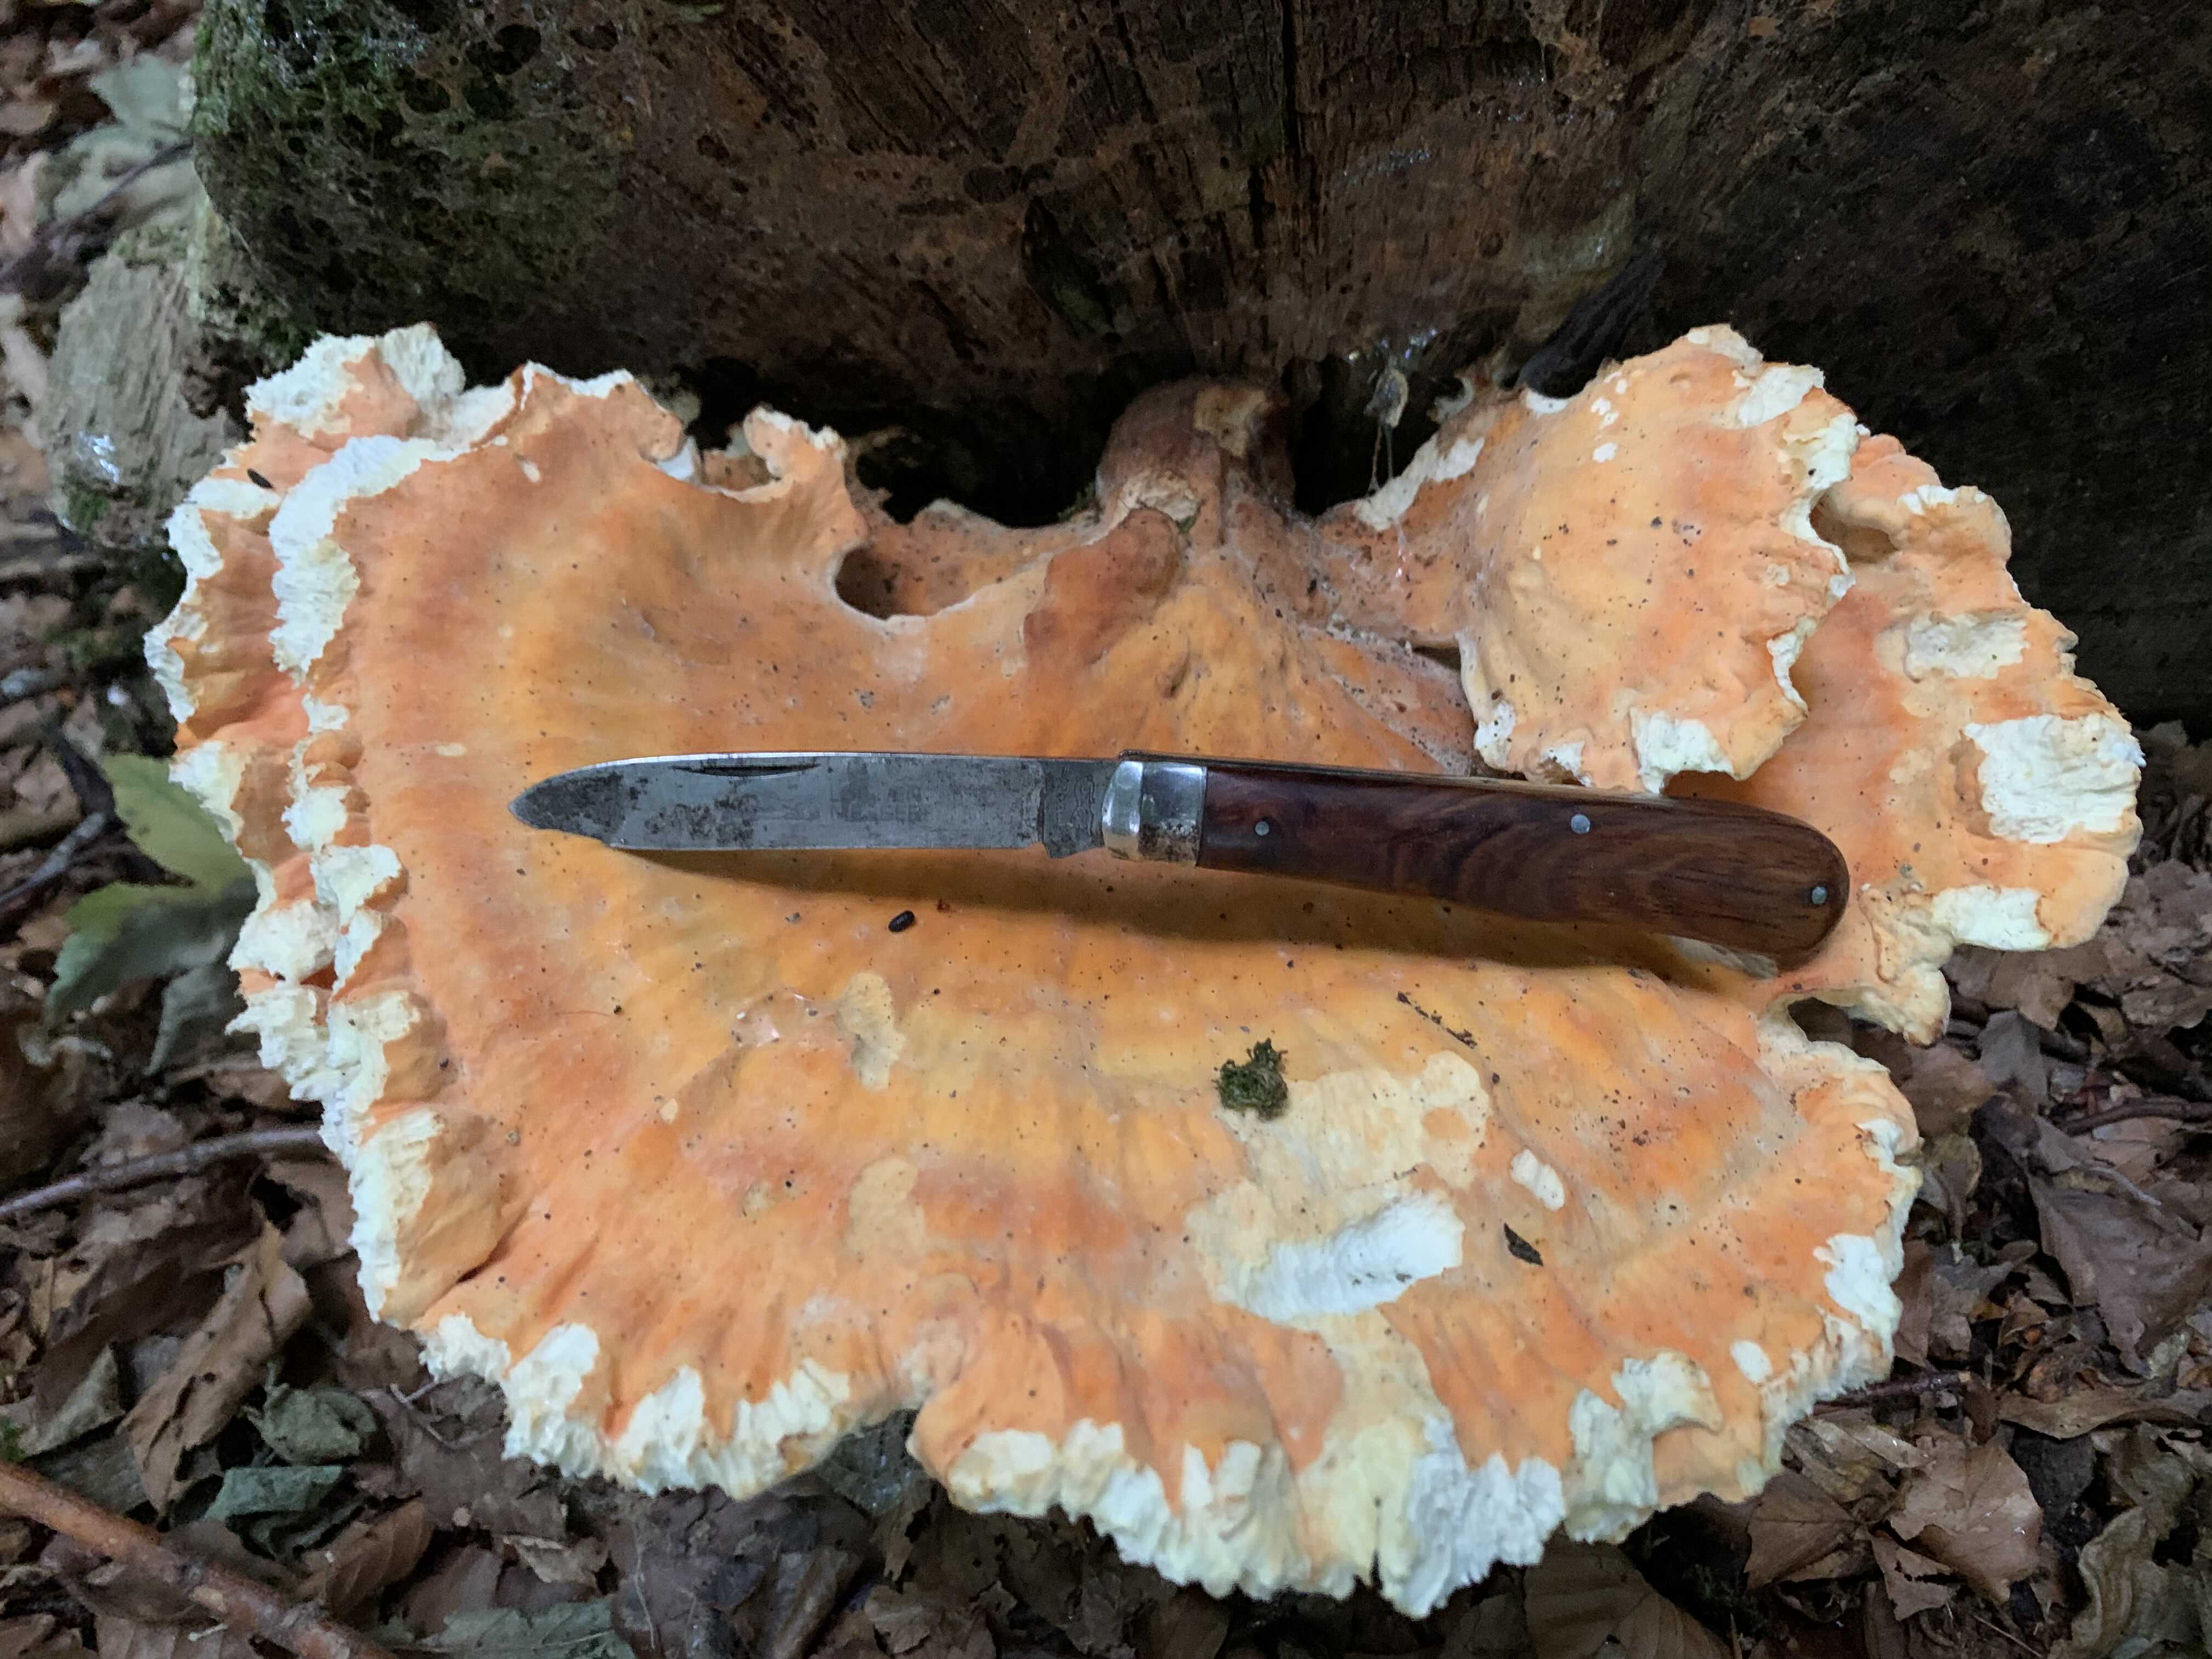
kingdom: Fungi
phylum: Basidiomycota
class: Agaricomycetes
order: Polyporales
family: Laetiporaceae
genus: Laetiporus
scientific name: Laetiporus sulphureus
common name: svovlporesvamp
